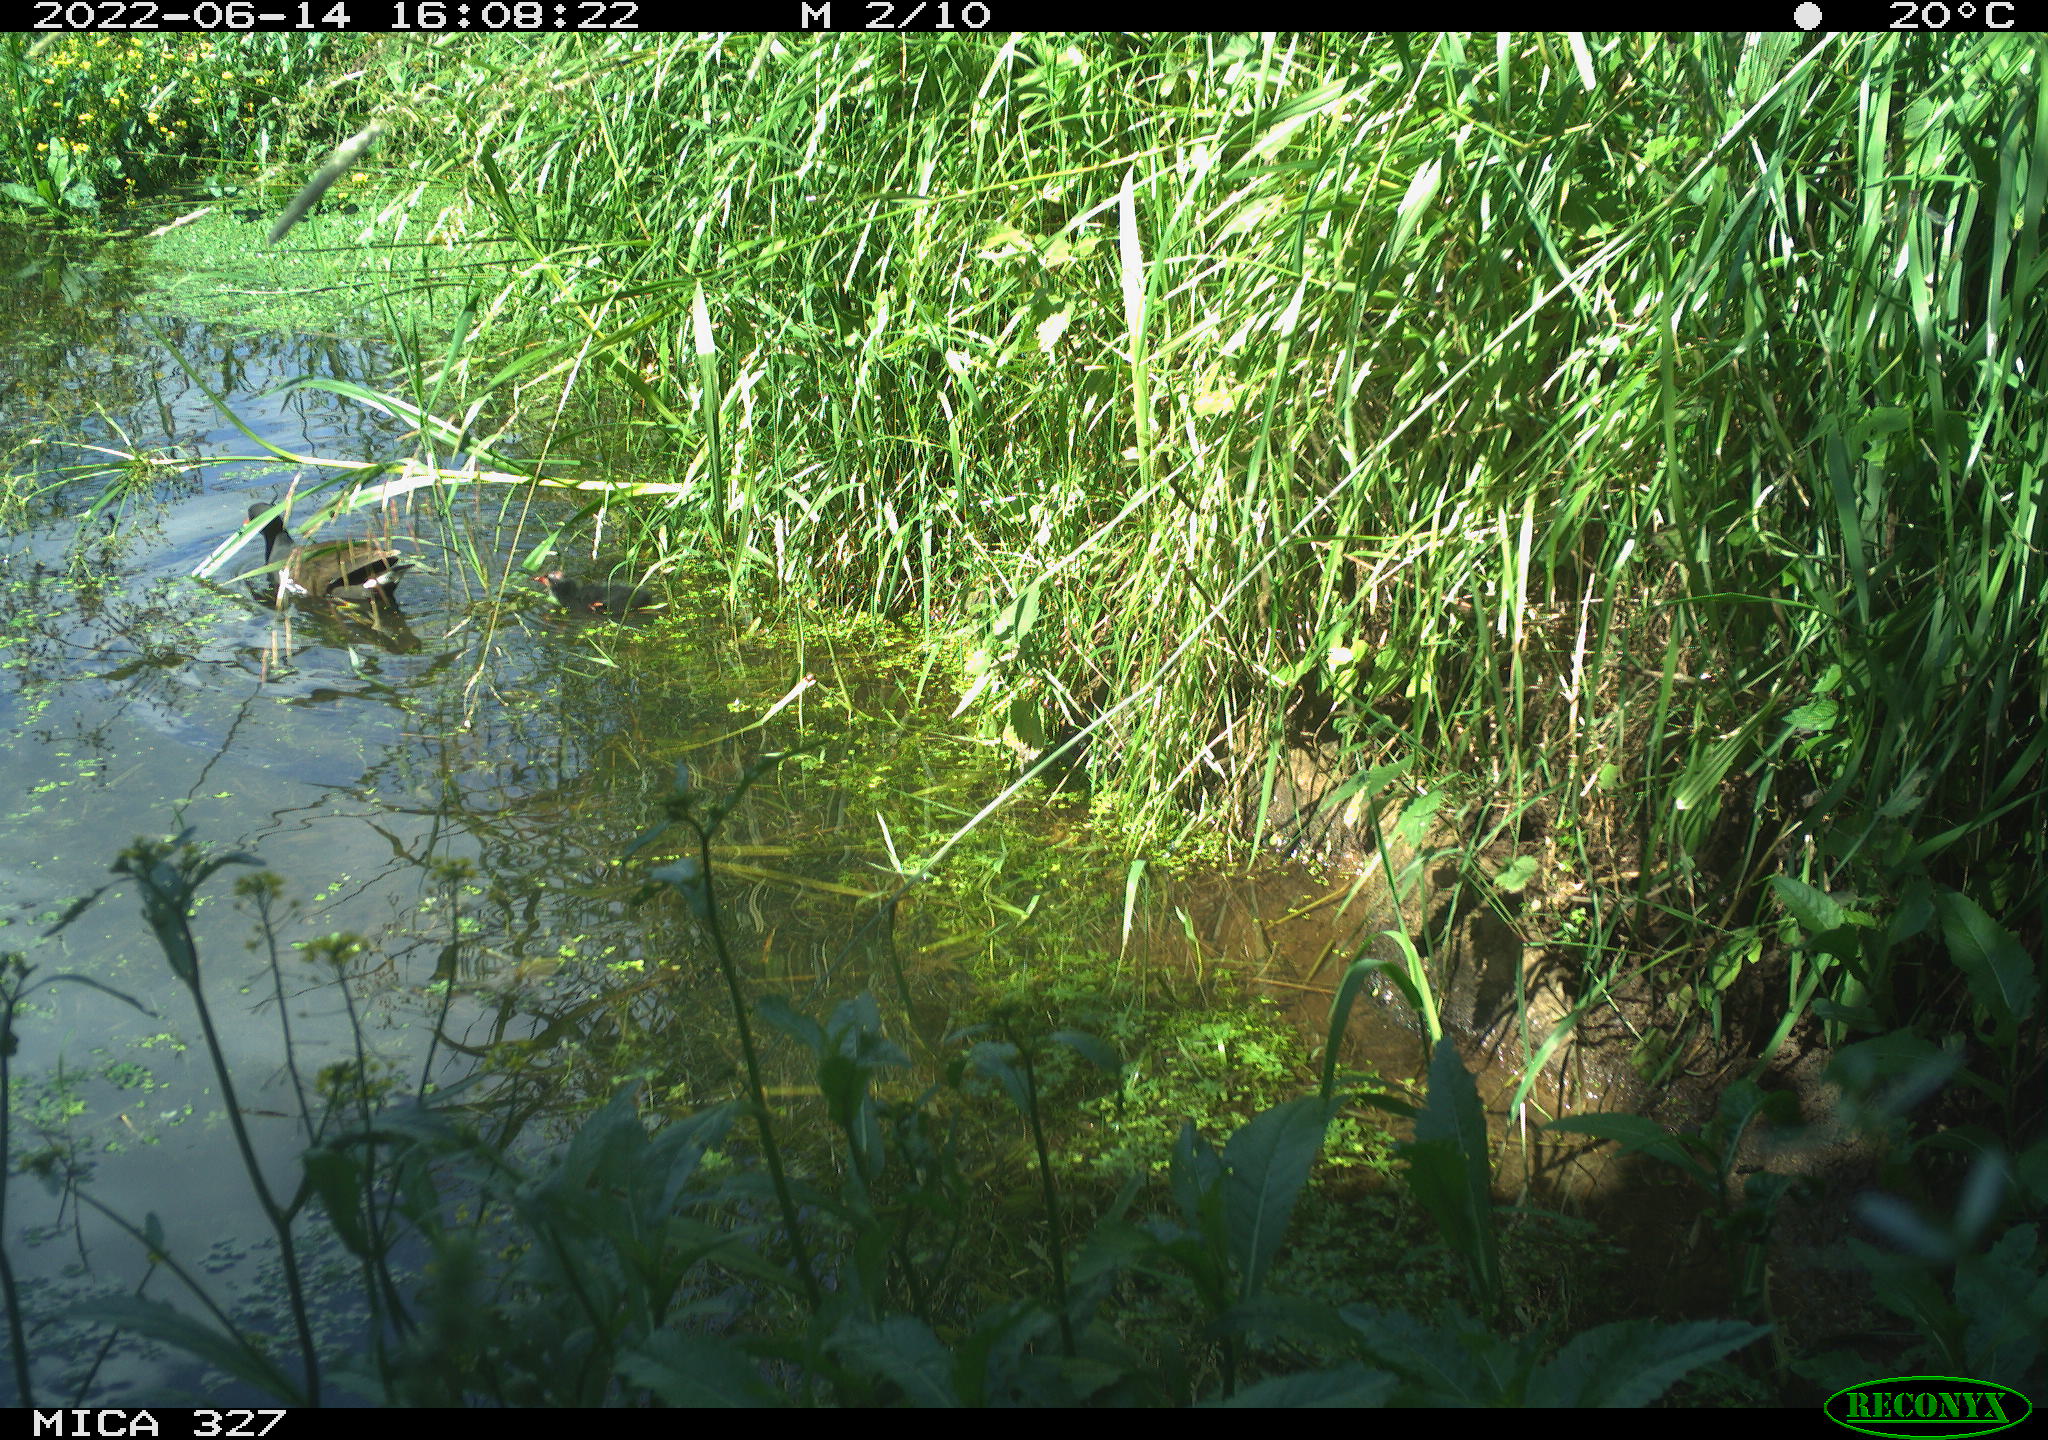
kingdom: Animalia
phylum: Chordata
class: Aves
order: Gruiformes
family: Rallidae
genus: Gallinula
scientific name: Gallinula chloropus
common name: Common moorhen
